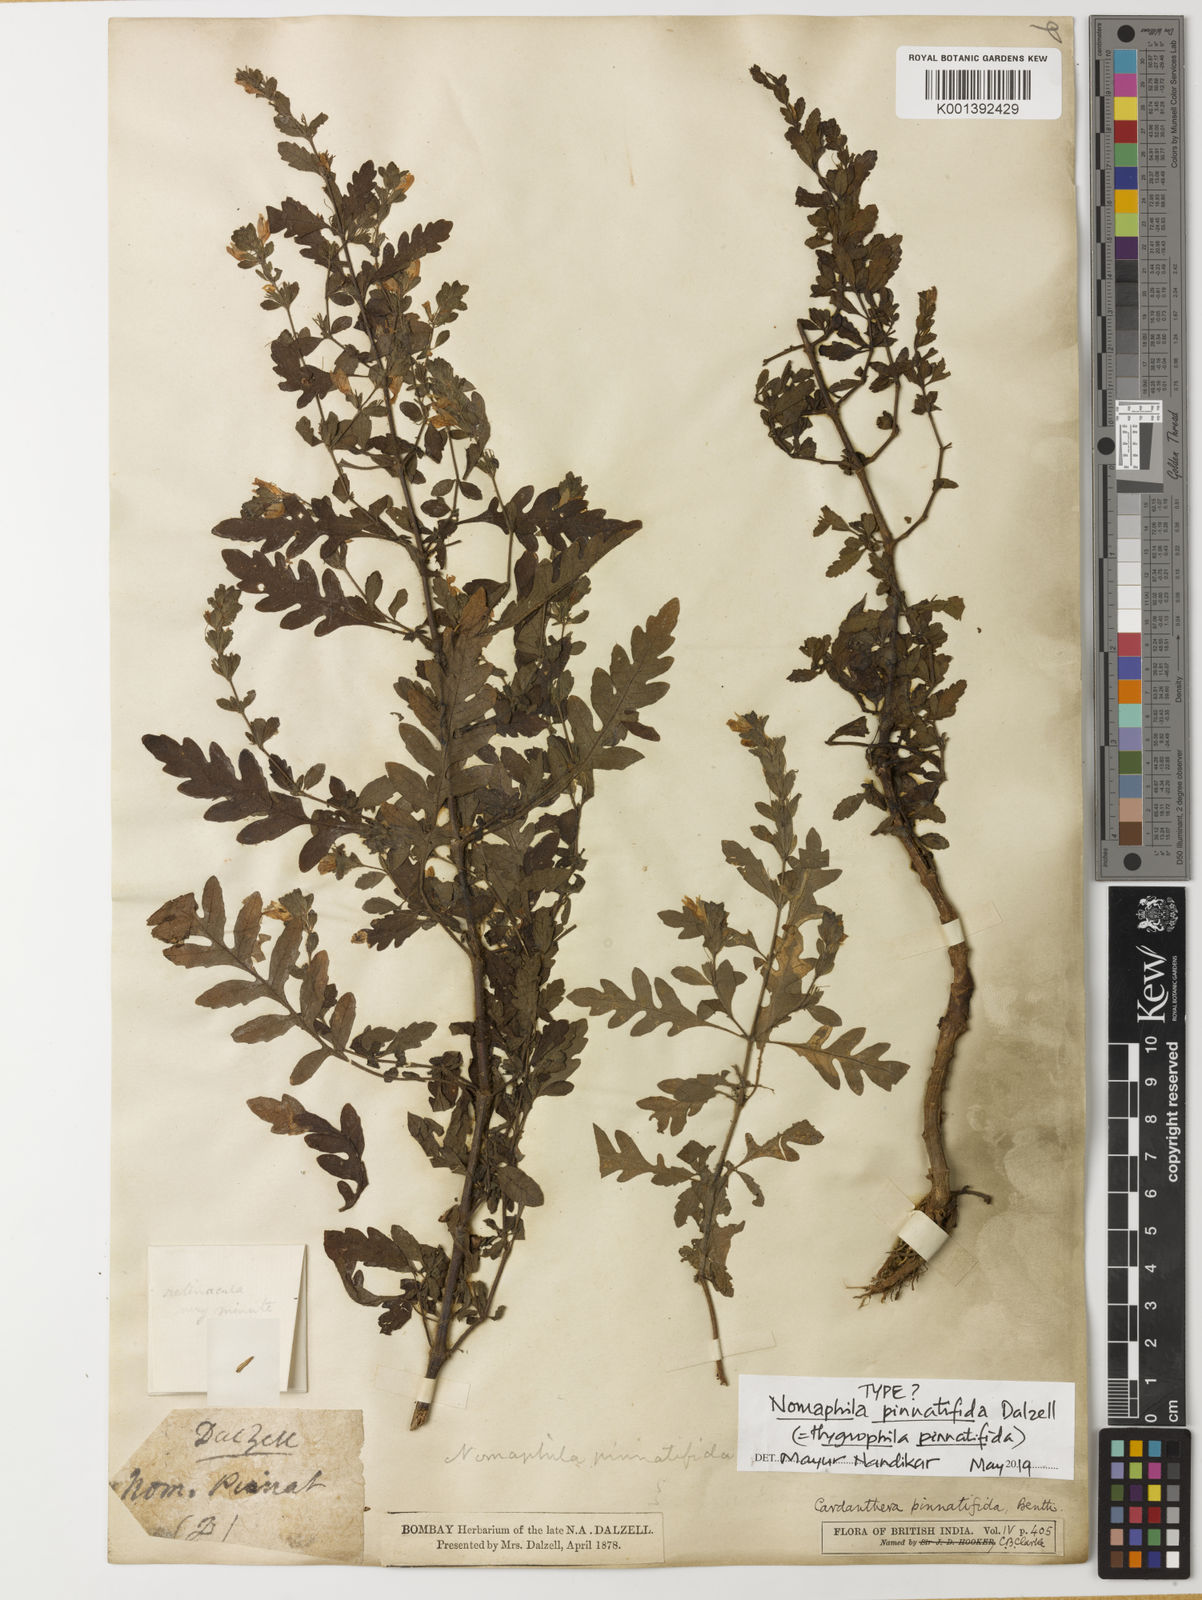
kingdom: Plantae
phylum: Tracheophyta
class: Magnoliopsida
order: Lamiales
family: Acanthaceae
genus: Hygrophila
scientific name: Hygrophila pinnatifida
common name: Indian swampweed
